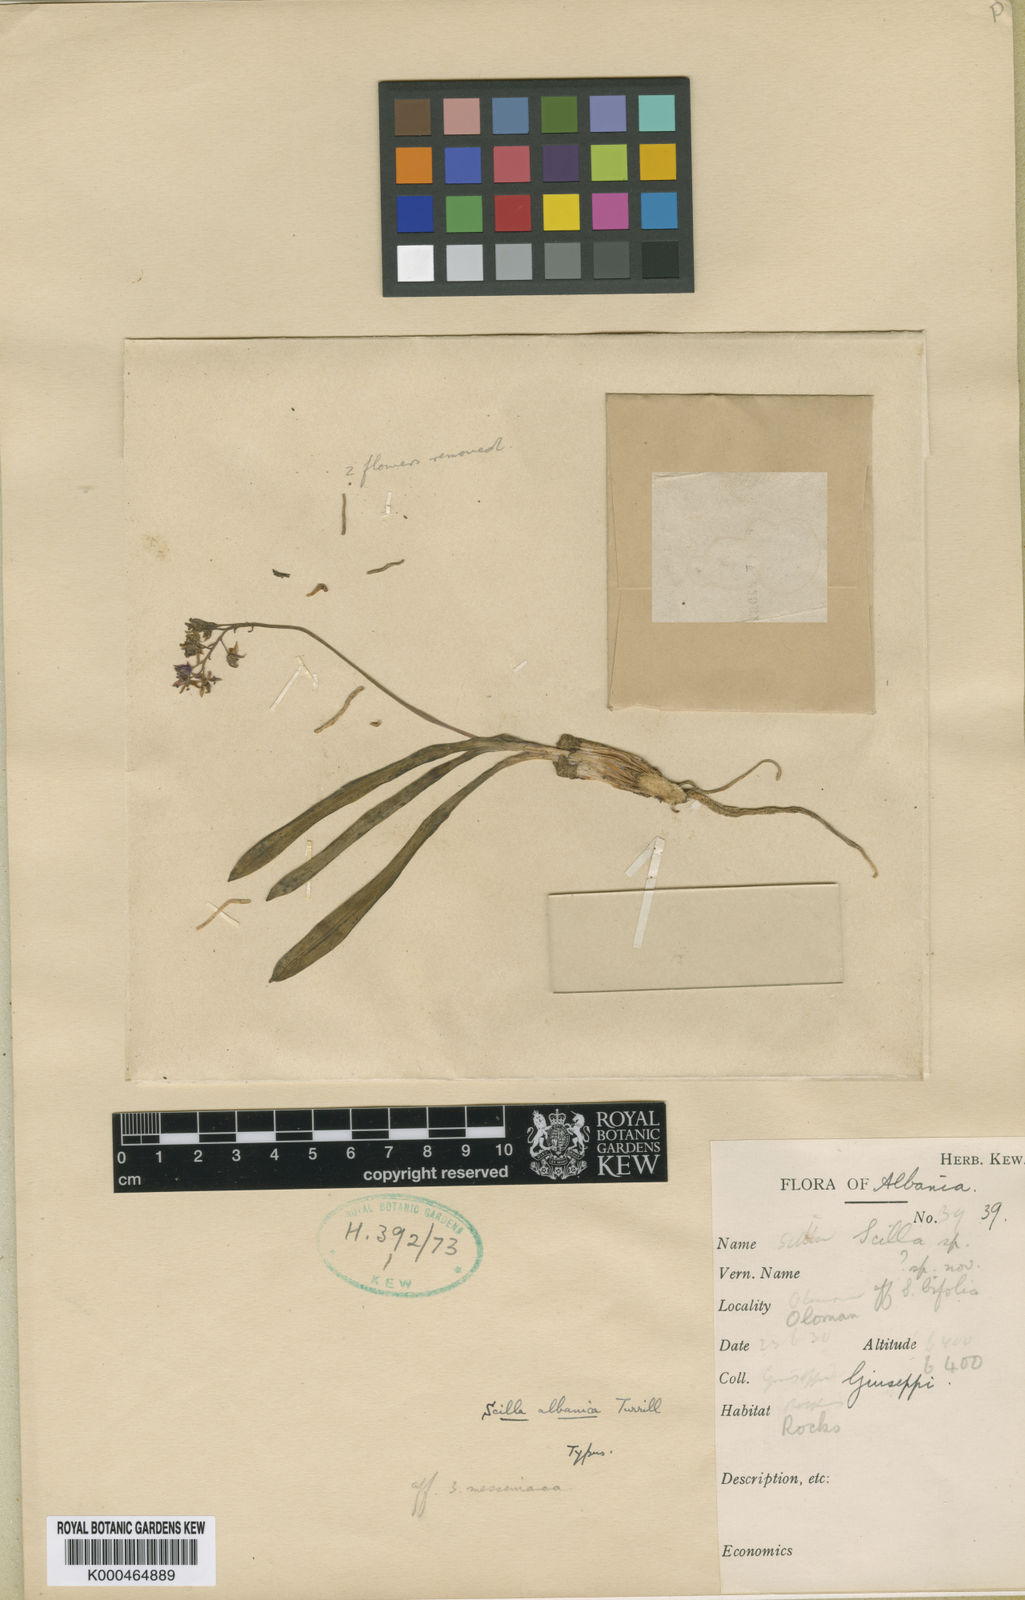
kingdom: Plantae
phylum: Tracheophyta
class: Liliopsida
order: Asparagales
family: Asparagaceae
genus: Scilla
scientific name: Scilla albanica
